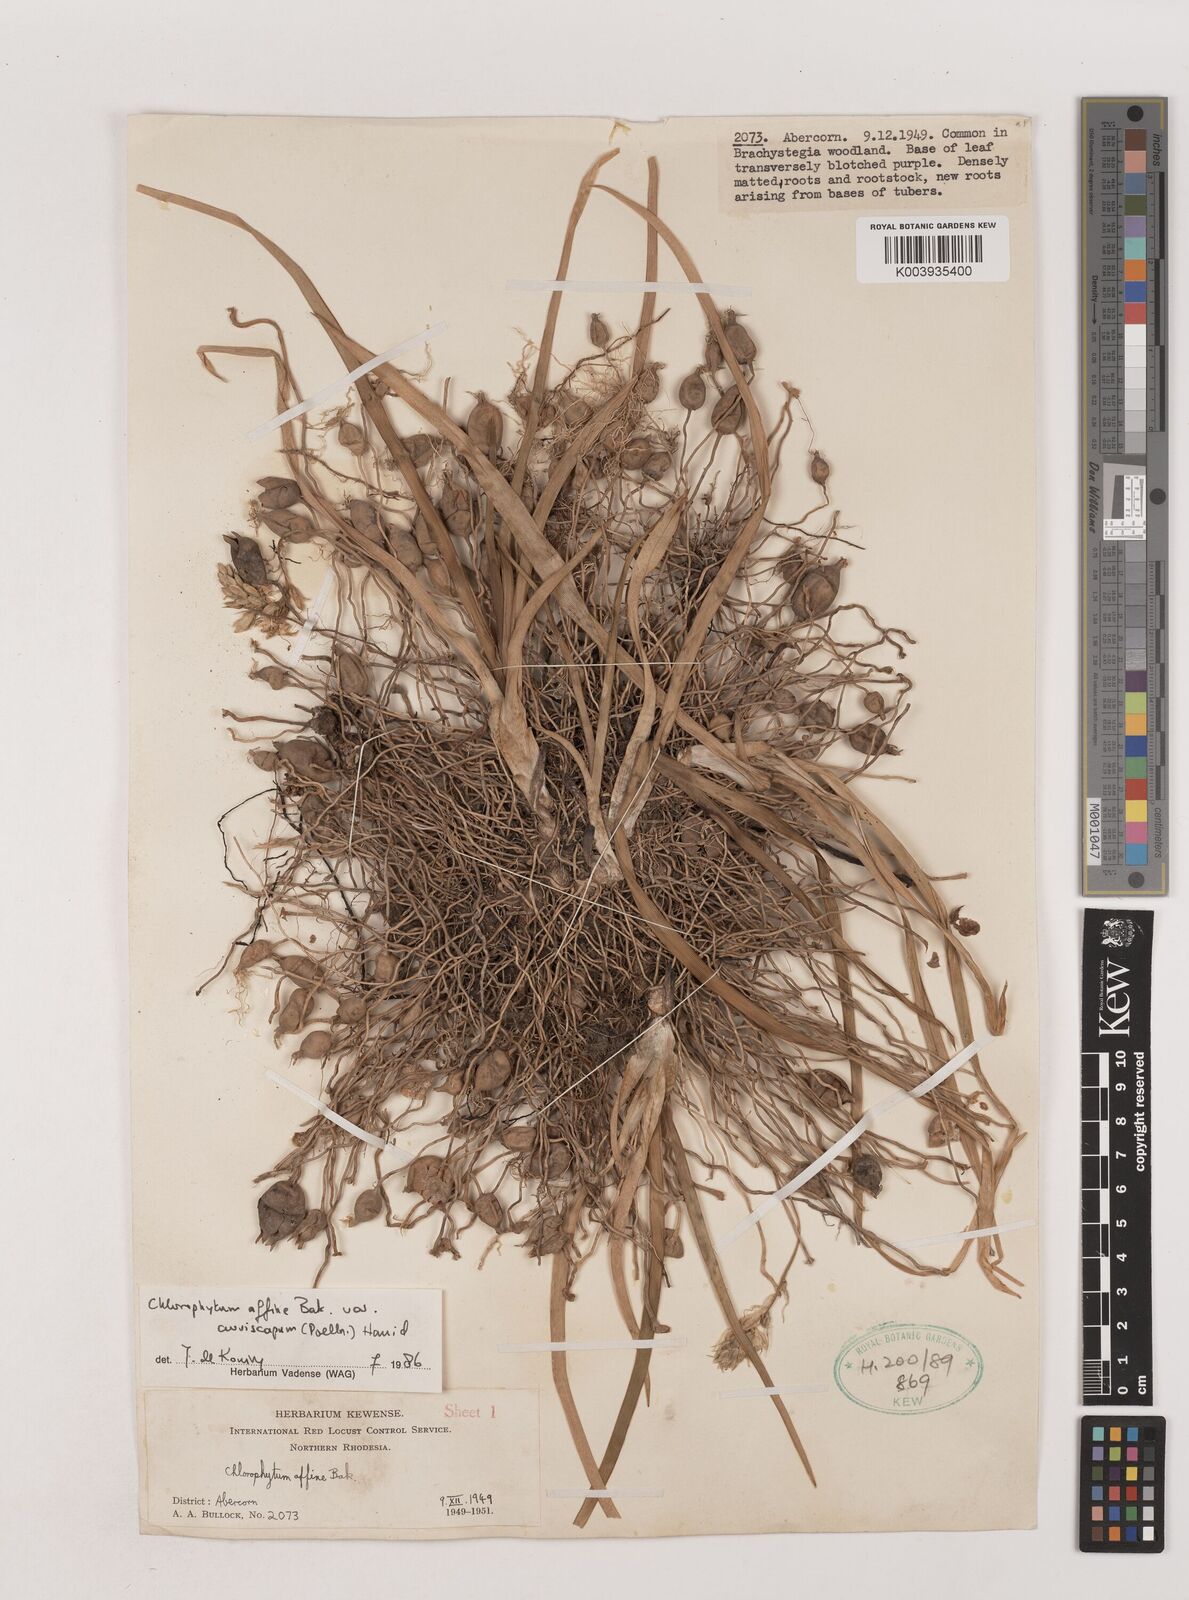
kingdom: Plantae
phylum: Tracheophyta
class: Liliopsida
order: Asparagales
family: Asparagaceae
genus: Chlorophytum
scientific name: Chlorophytum tordense
